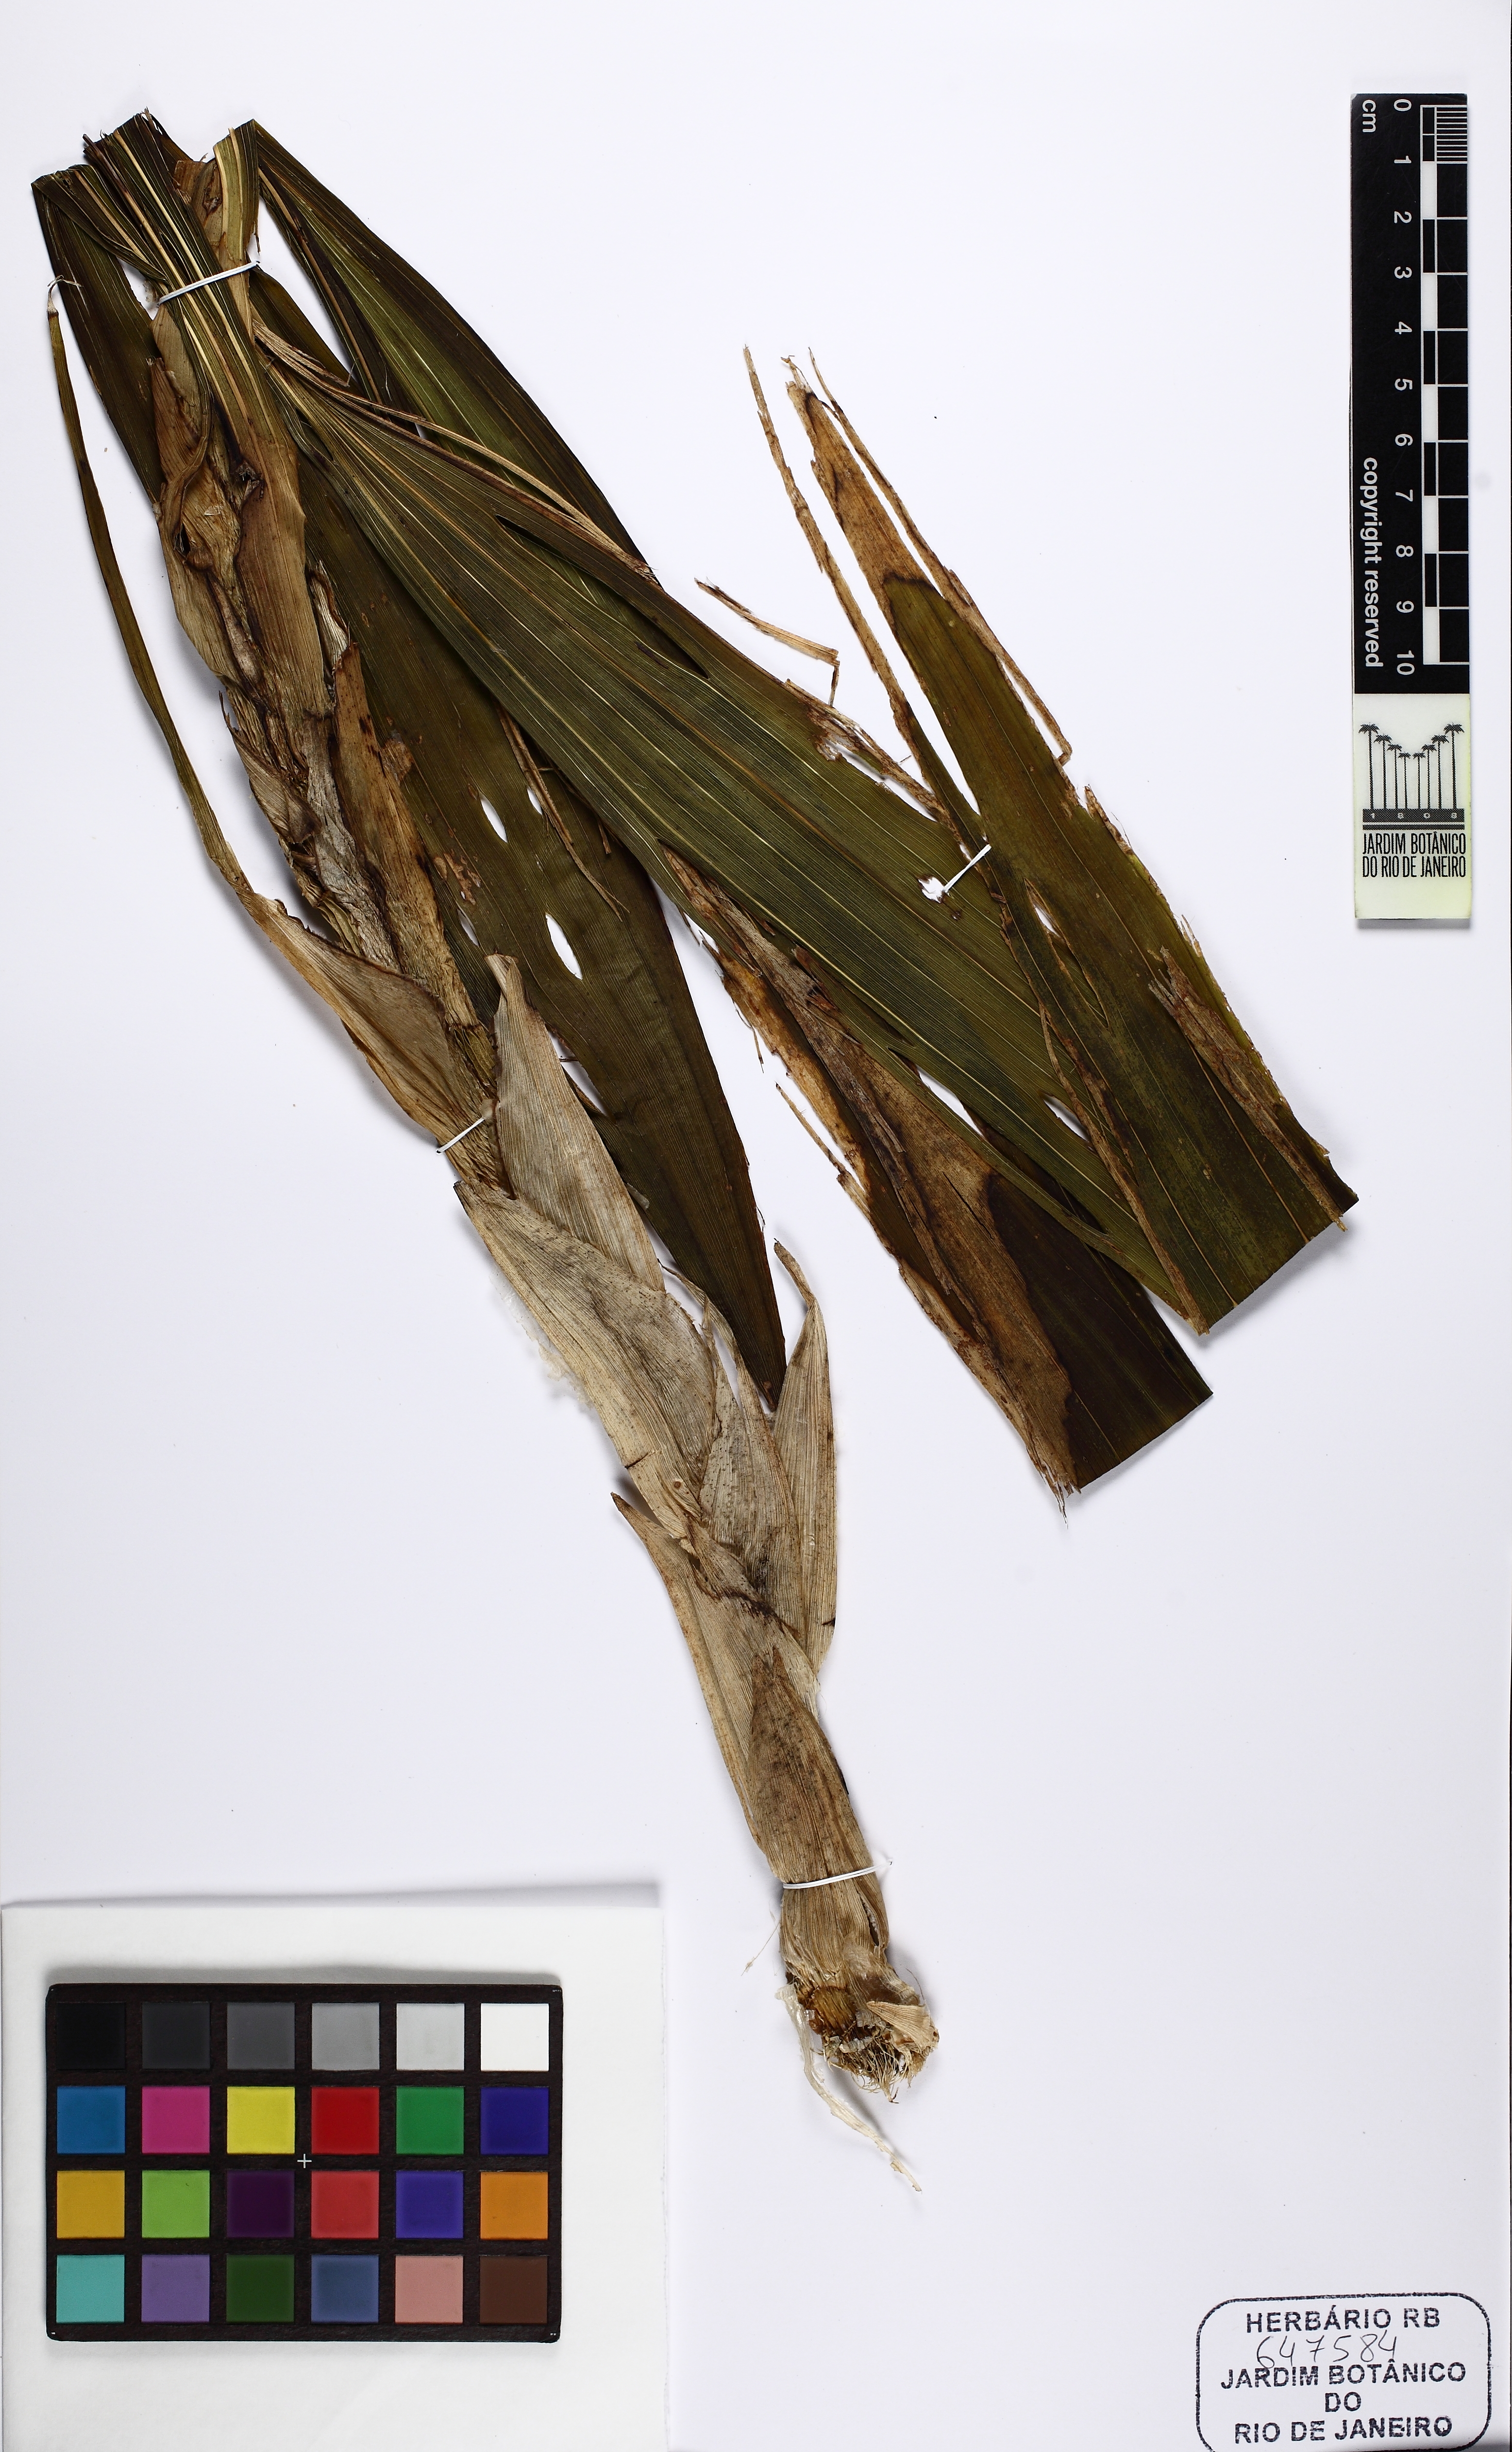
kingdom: Plantae
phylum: Tracheophyta
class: Liliopsida
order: Asparagales
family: Orchidaceae
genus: Cyrtopodium
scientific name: Cyrtopodium glutiniferum
